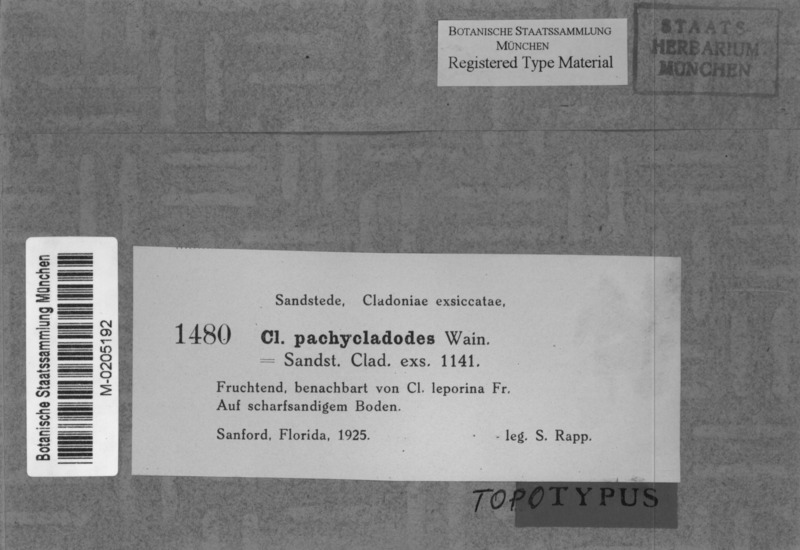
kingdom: Fungi
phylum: Ascomycota
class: Lecanoromycetes
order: Lecanorales
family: Cladoniaceae
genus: Cladonia
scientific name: Cladonia pachycladodes
